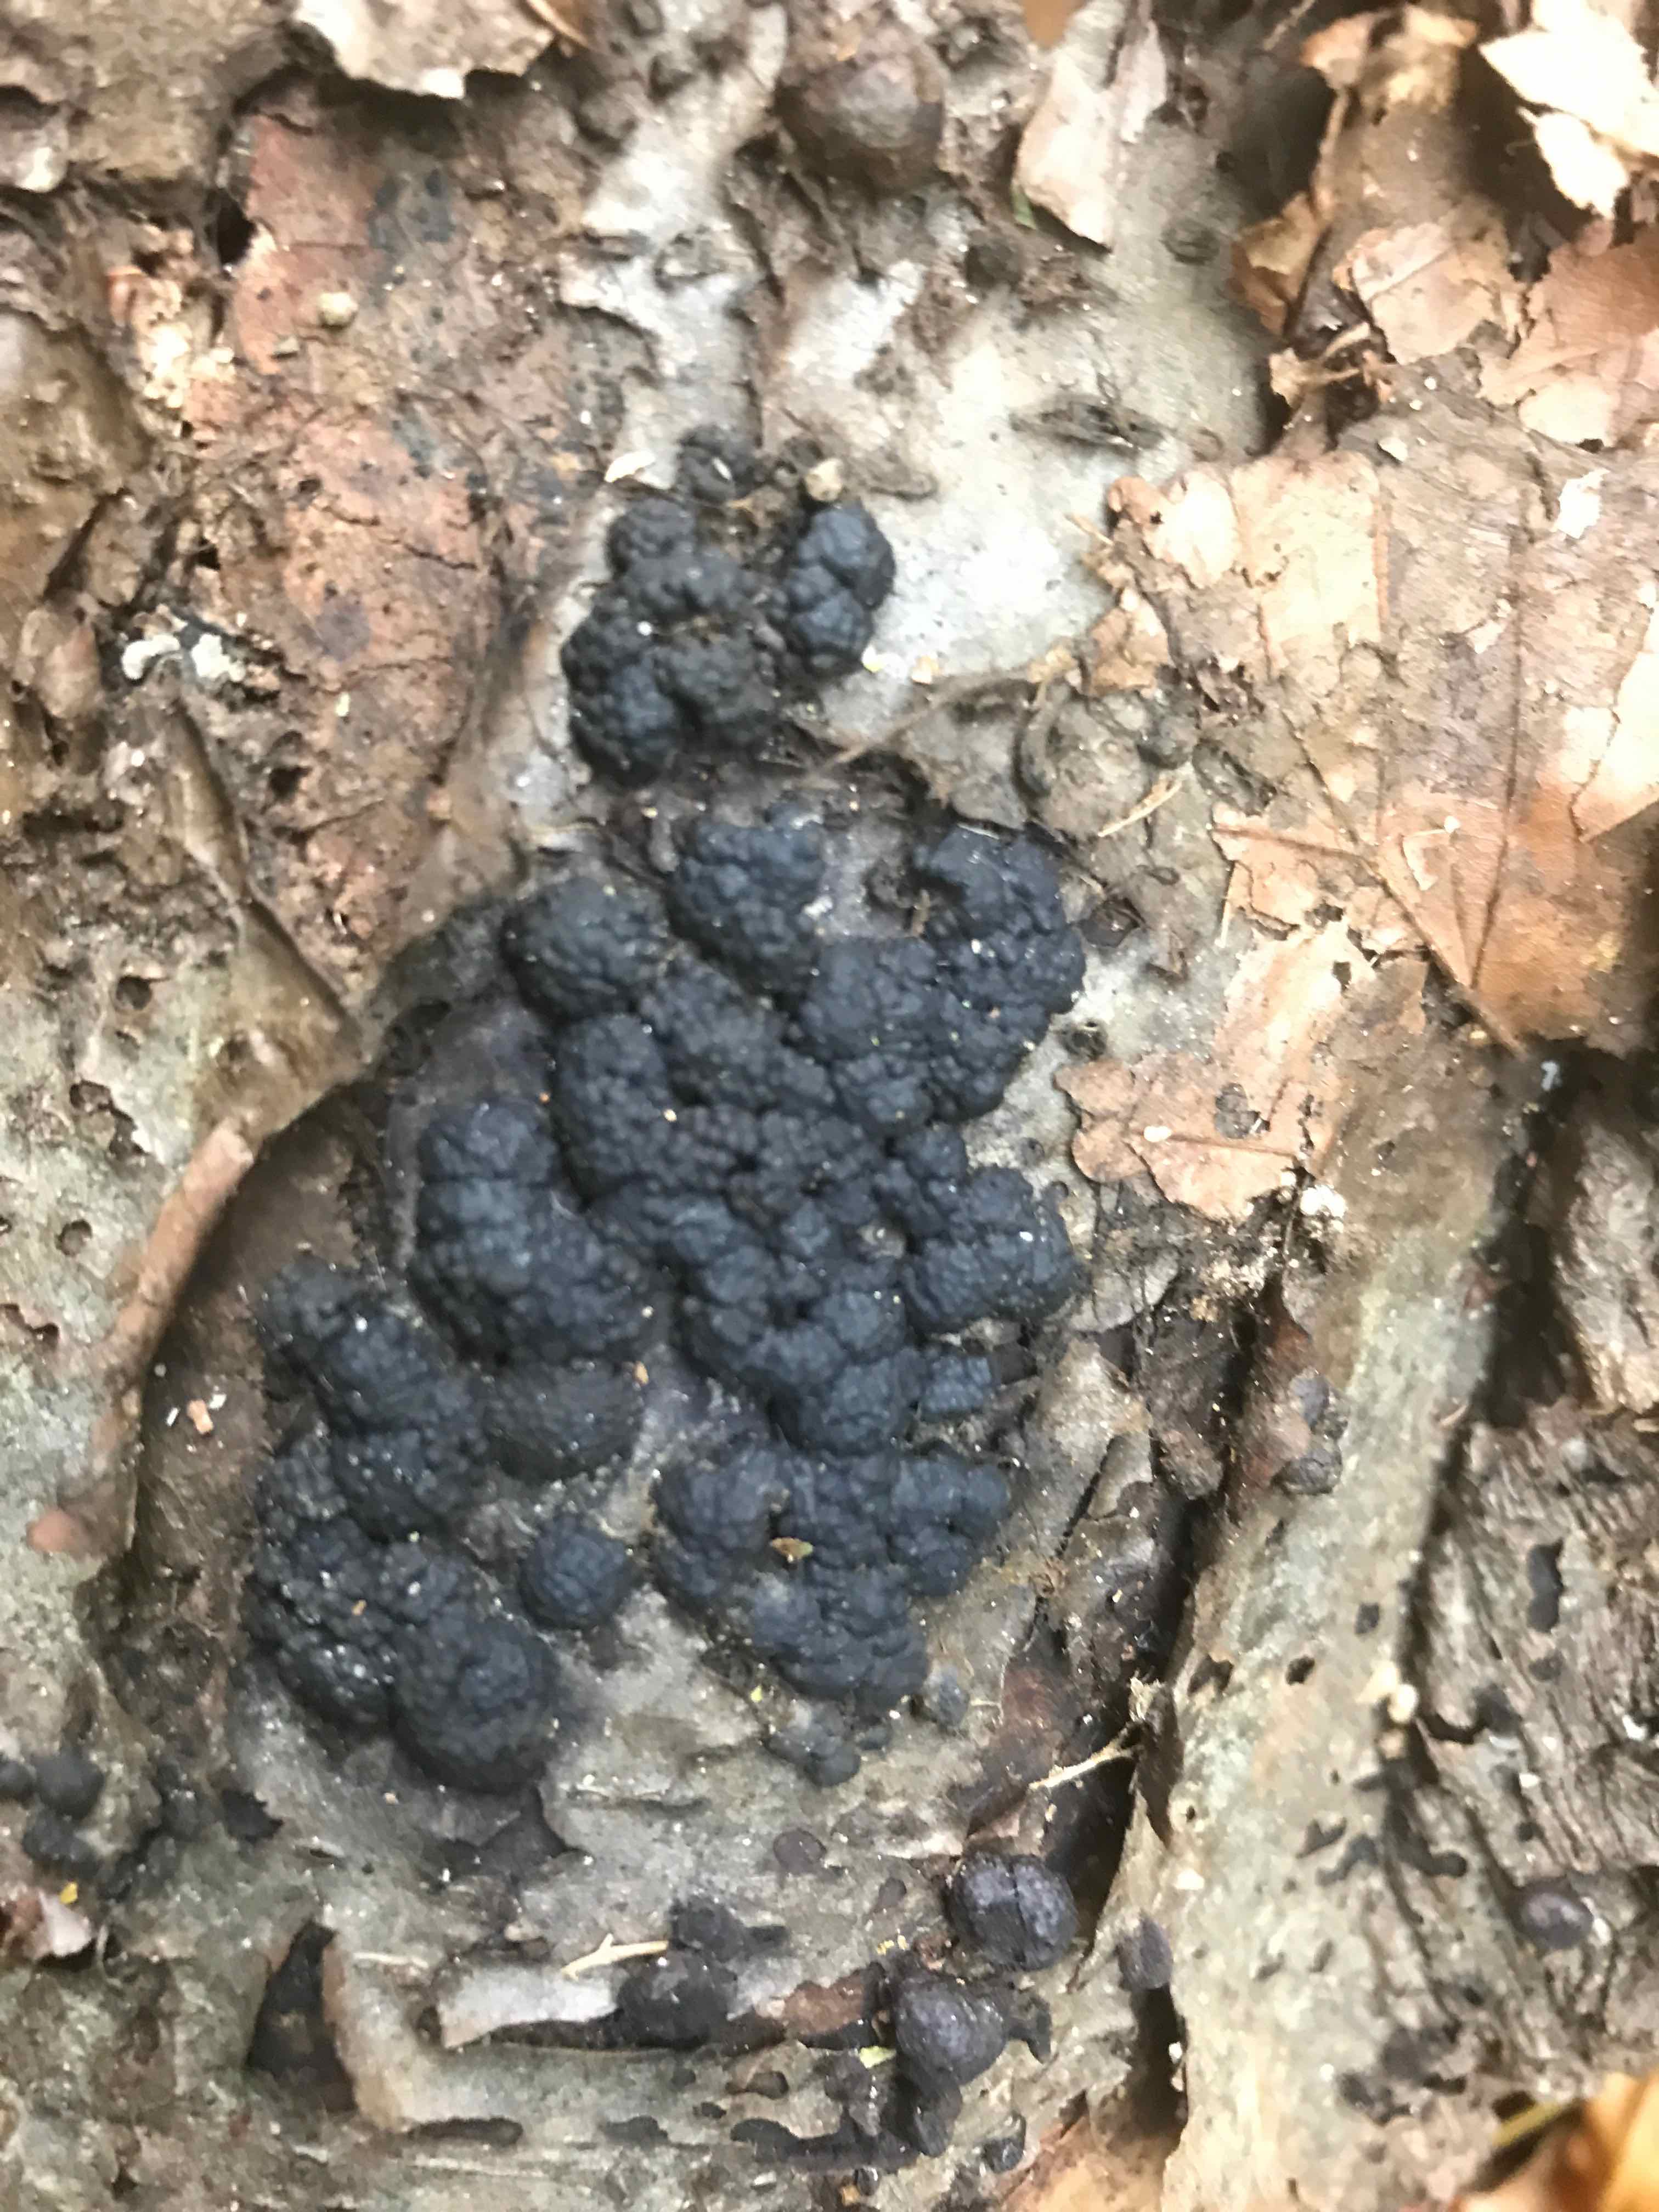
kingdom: Fungi
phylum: Ascomycota
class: Sordariomycetes
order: Xylariales
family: Hypoxylaceae
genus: Jackrogersella
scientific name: Jackrogersella cohaerens
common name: sammenflydende kulbær
